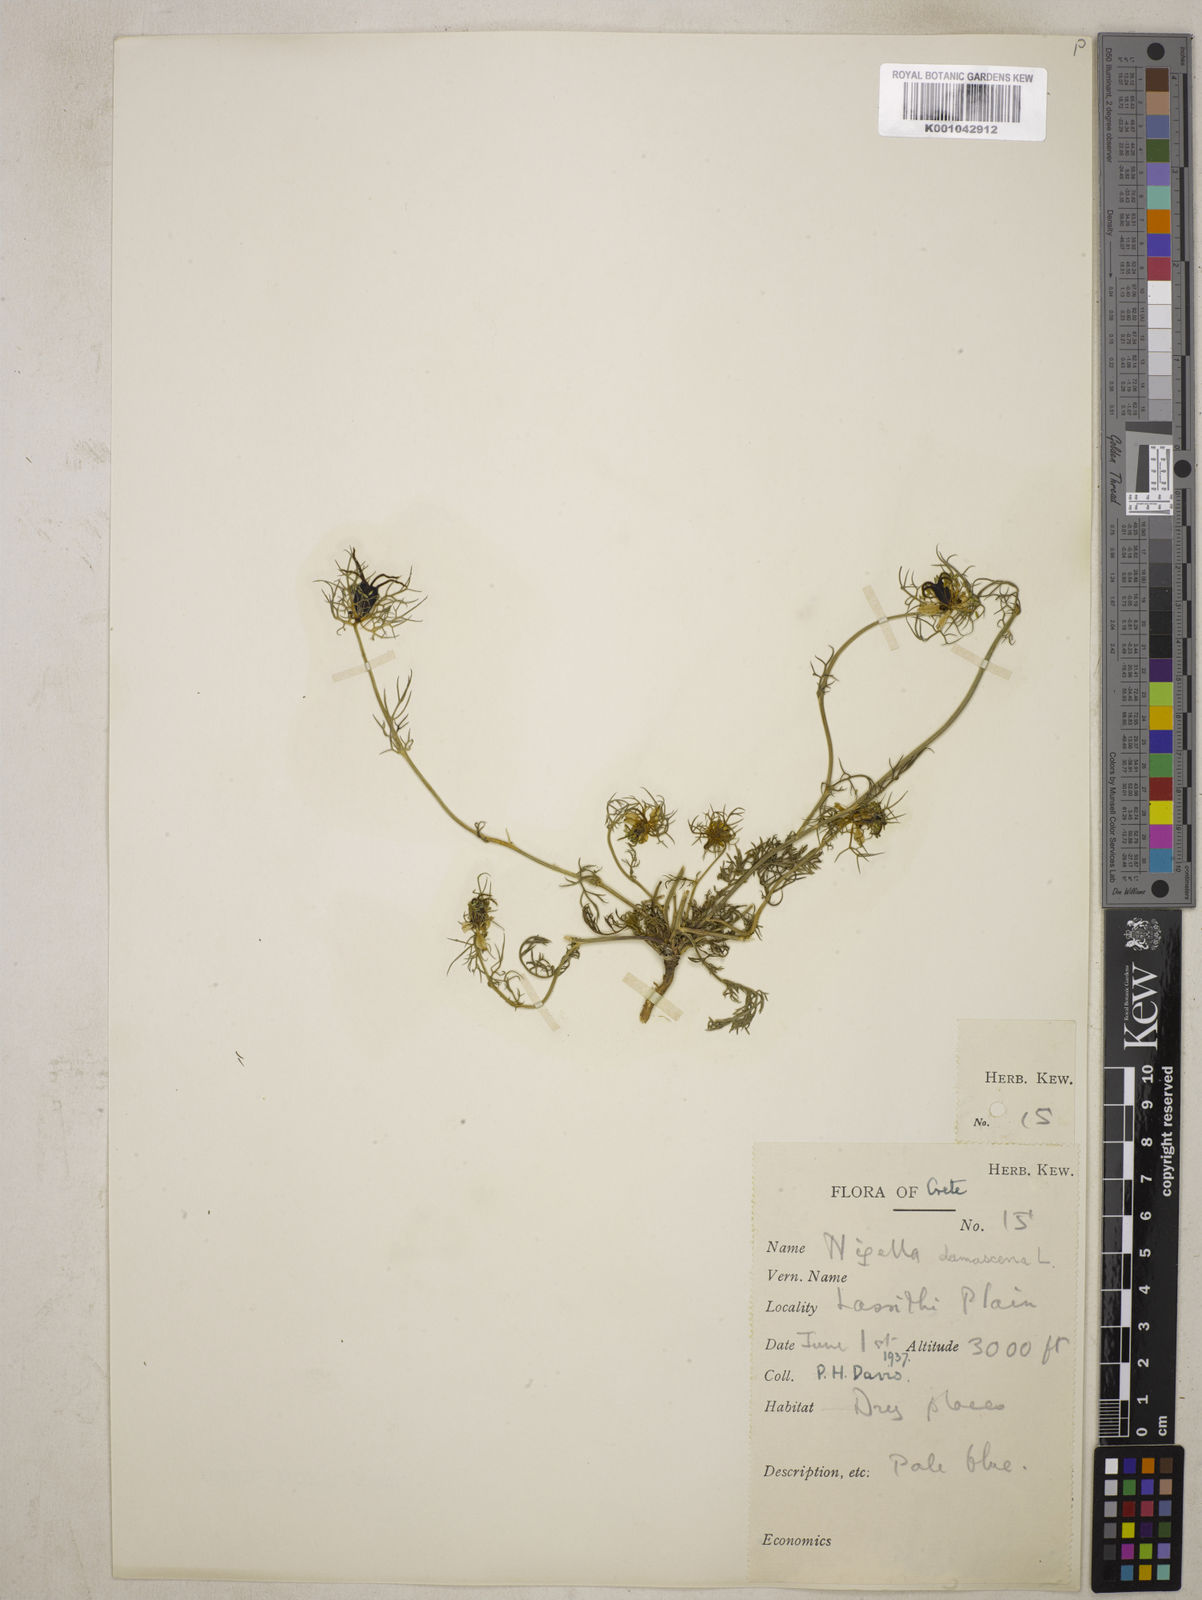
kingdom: Plantae
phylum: Tracheophyta
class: Magnoliopsida
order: Ranunculales
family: Ranunculaceae
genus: Nigella
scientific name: Nigella damascena
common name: Love-in-a-mist
